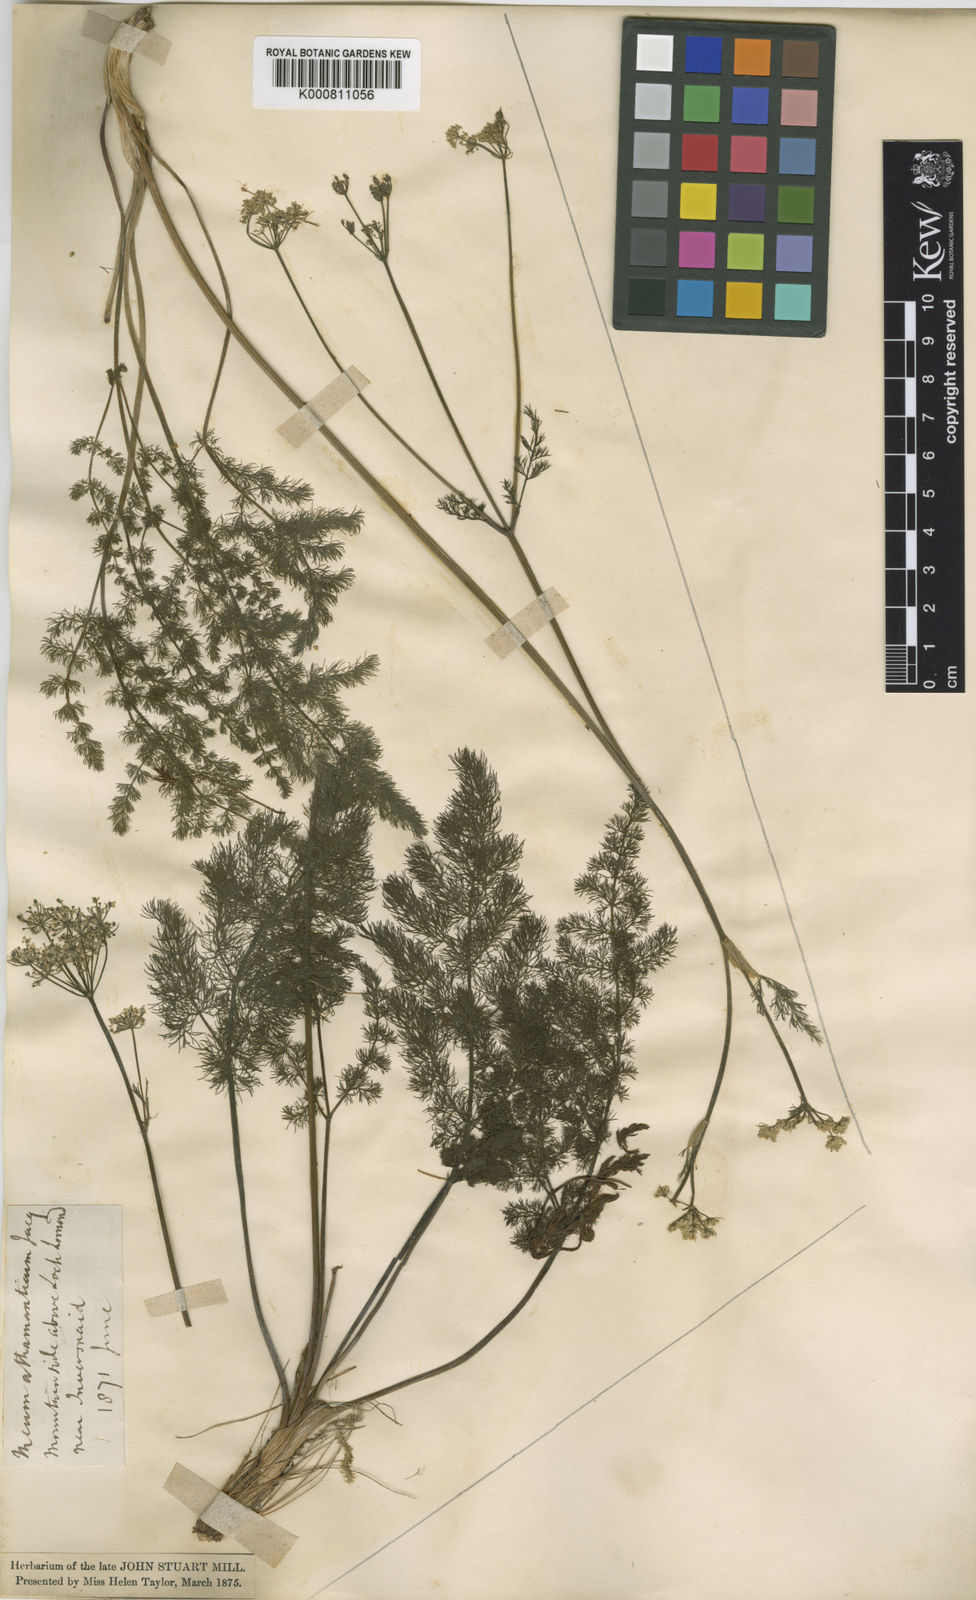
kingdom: Plantae
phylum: Tracheophyta
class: Magnoliopsida
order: Apiales
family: Apiaceae
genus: Meum
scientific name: Meum athamanticum
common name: Spignel
